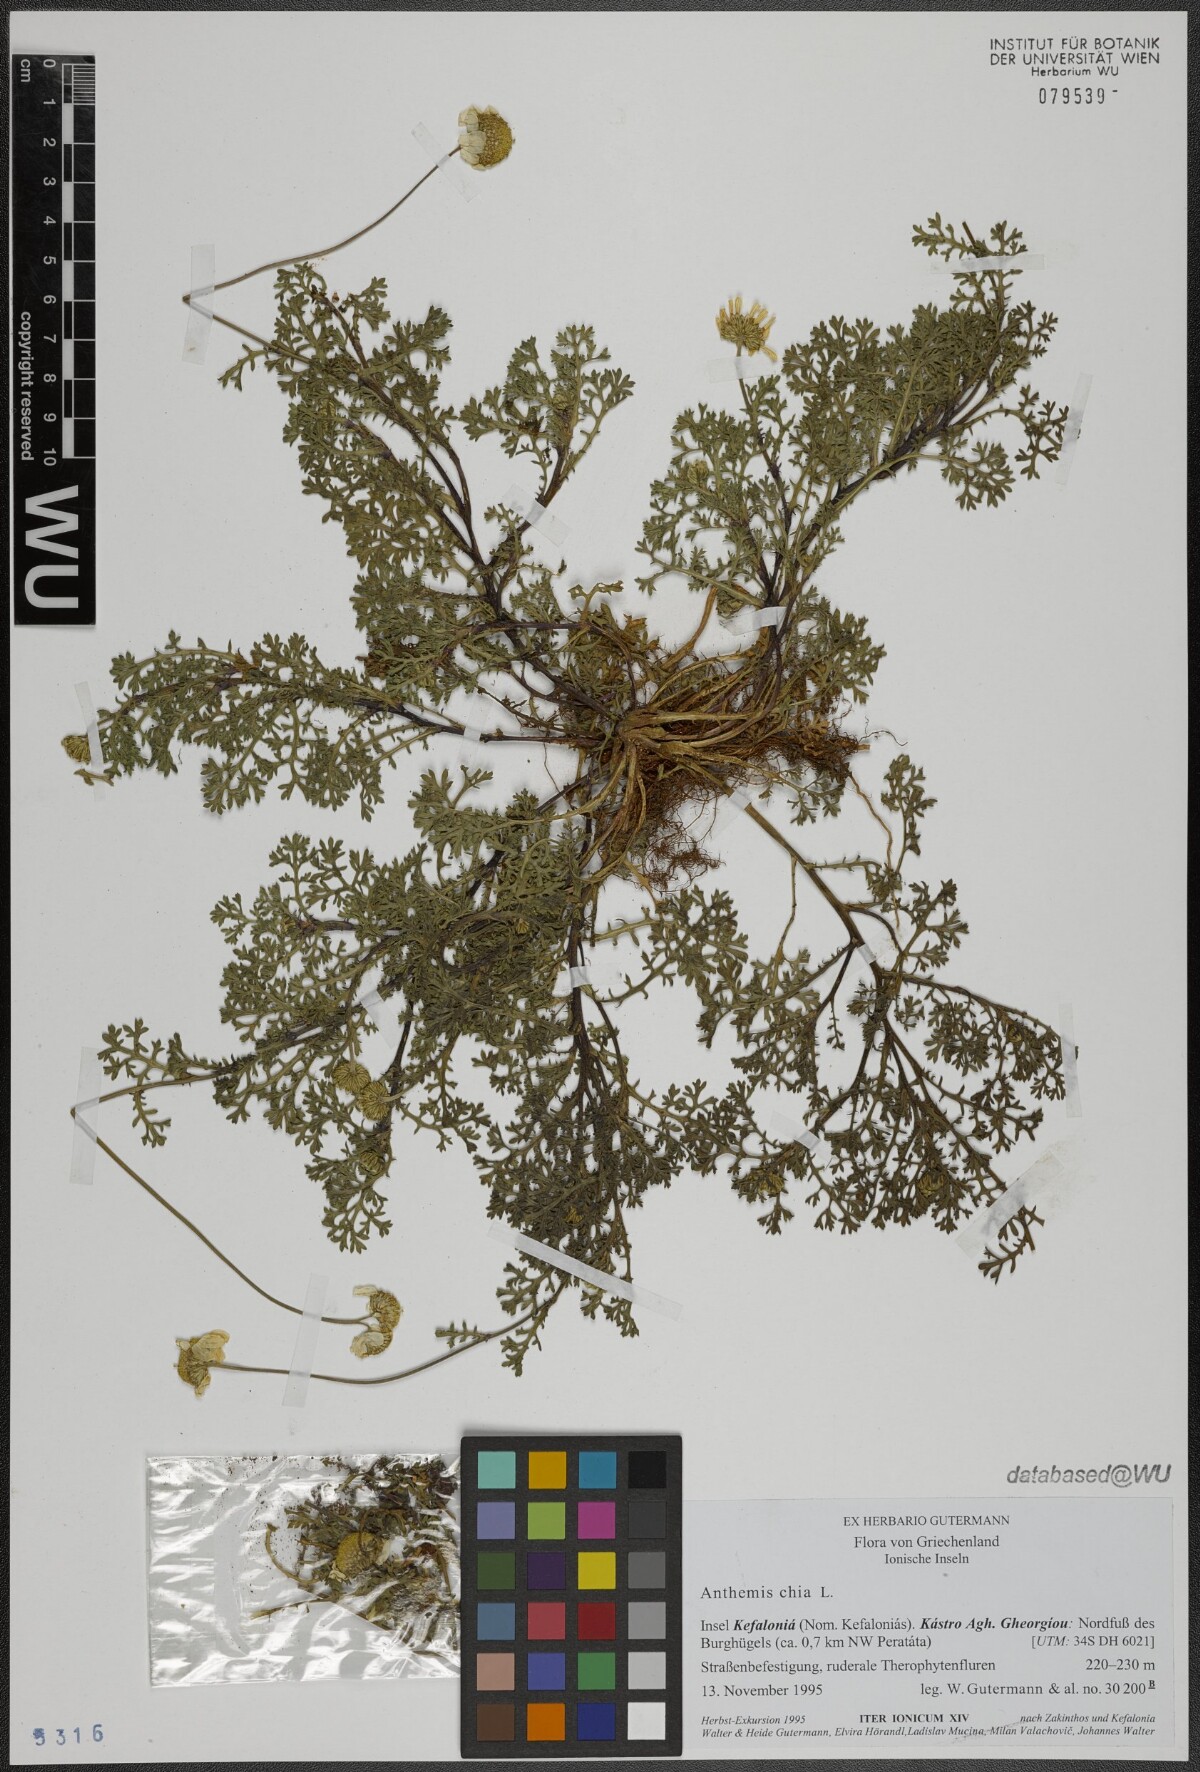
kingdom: Plantae
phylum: Tracheophyta
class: Magnoliopsida
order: Asterales
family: Asteraceae
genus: Anthemis
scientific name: Anthemis chia
